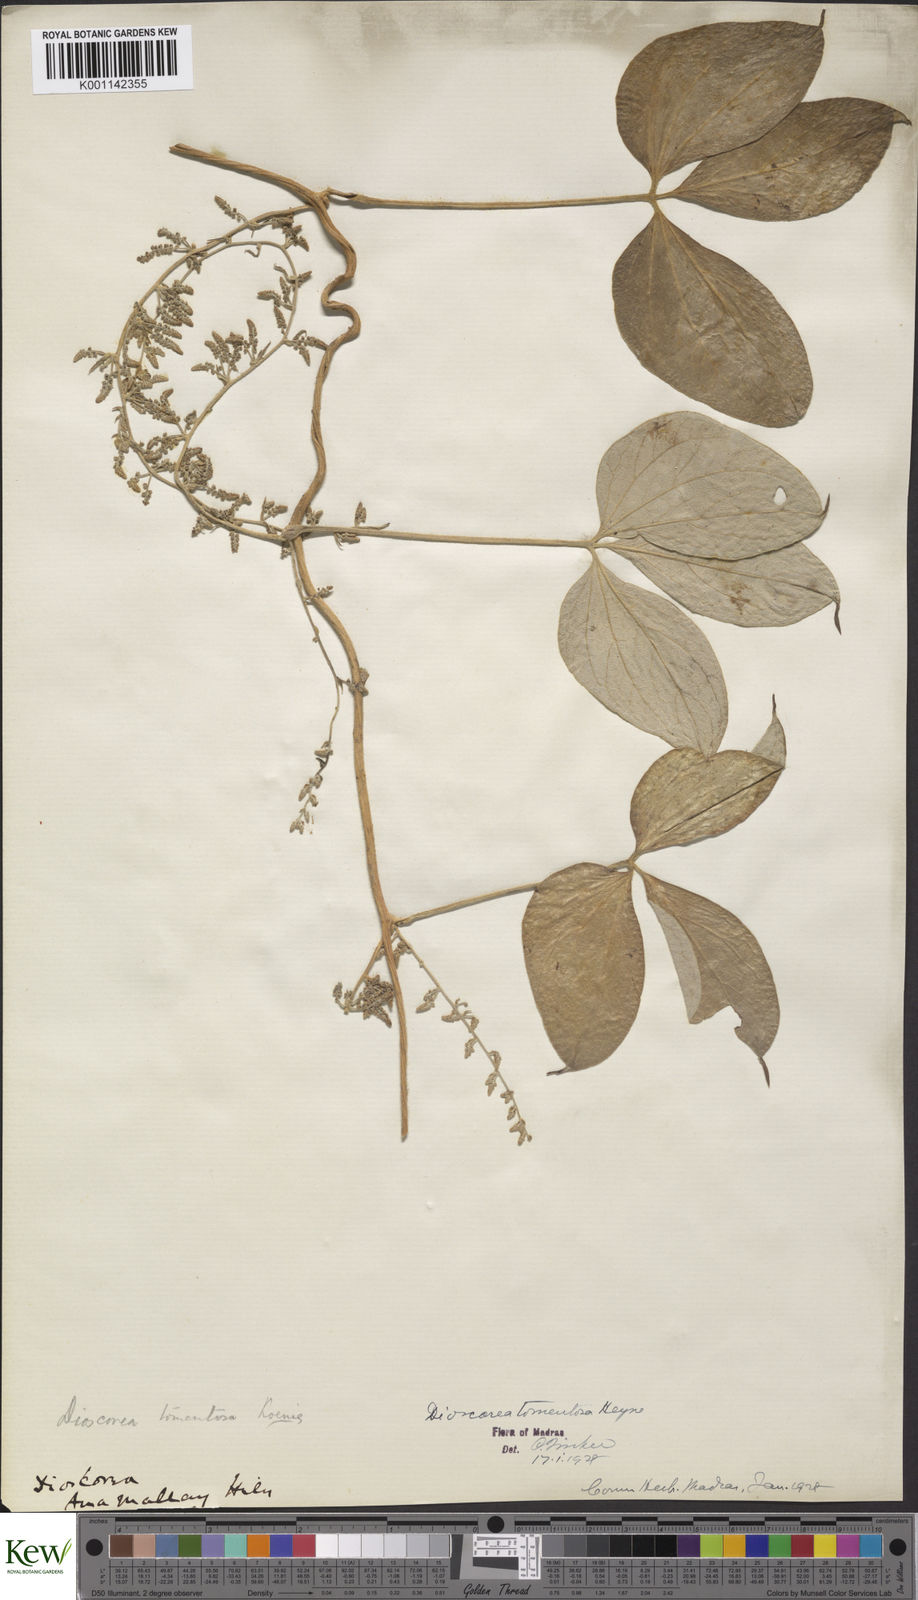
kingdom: Plantae
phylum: Tracheophyta
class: Liliopsida
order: Dioscoreales
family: Dioscoreaceae
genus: Dioscorea
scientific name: Dioscorea
